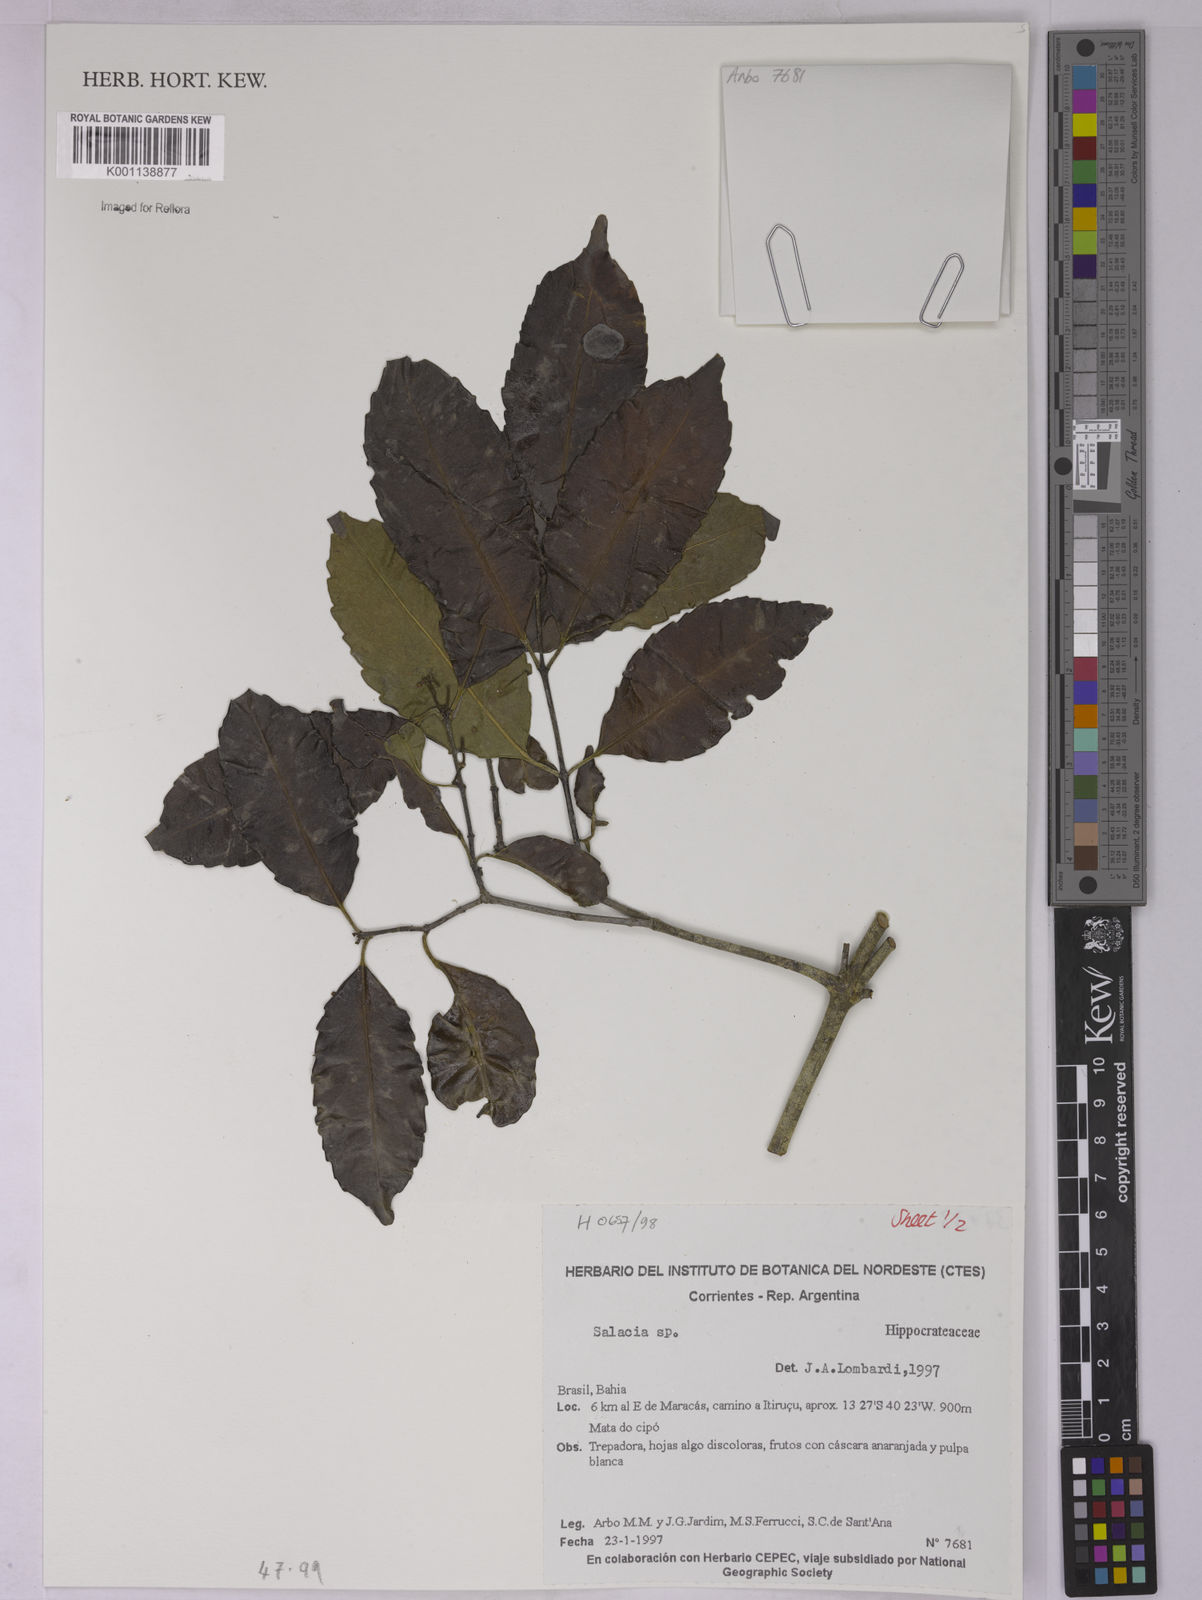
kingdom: Plantae
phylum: Tracheophyta
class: Magnoliopsida
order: Celastrales
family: Celastraceae
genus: Salacia
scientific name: Salacia
